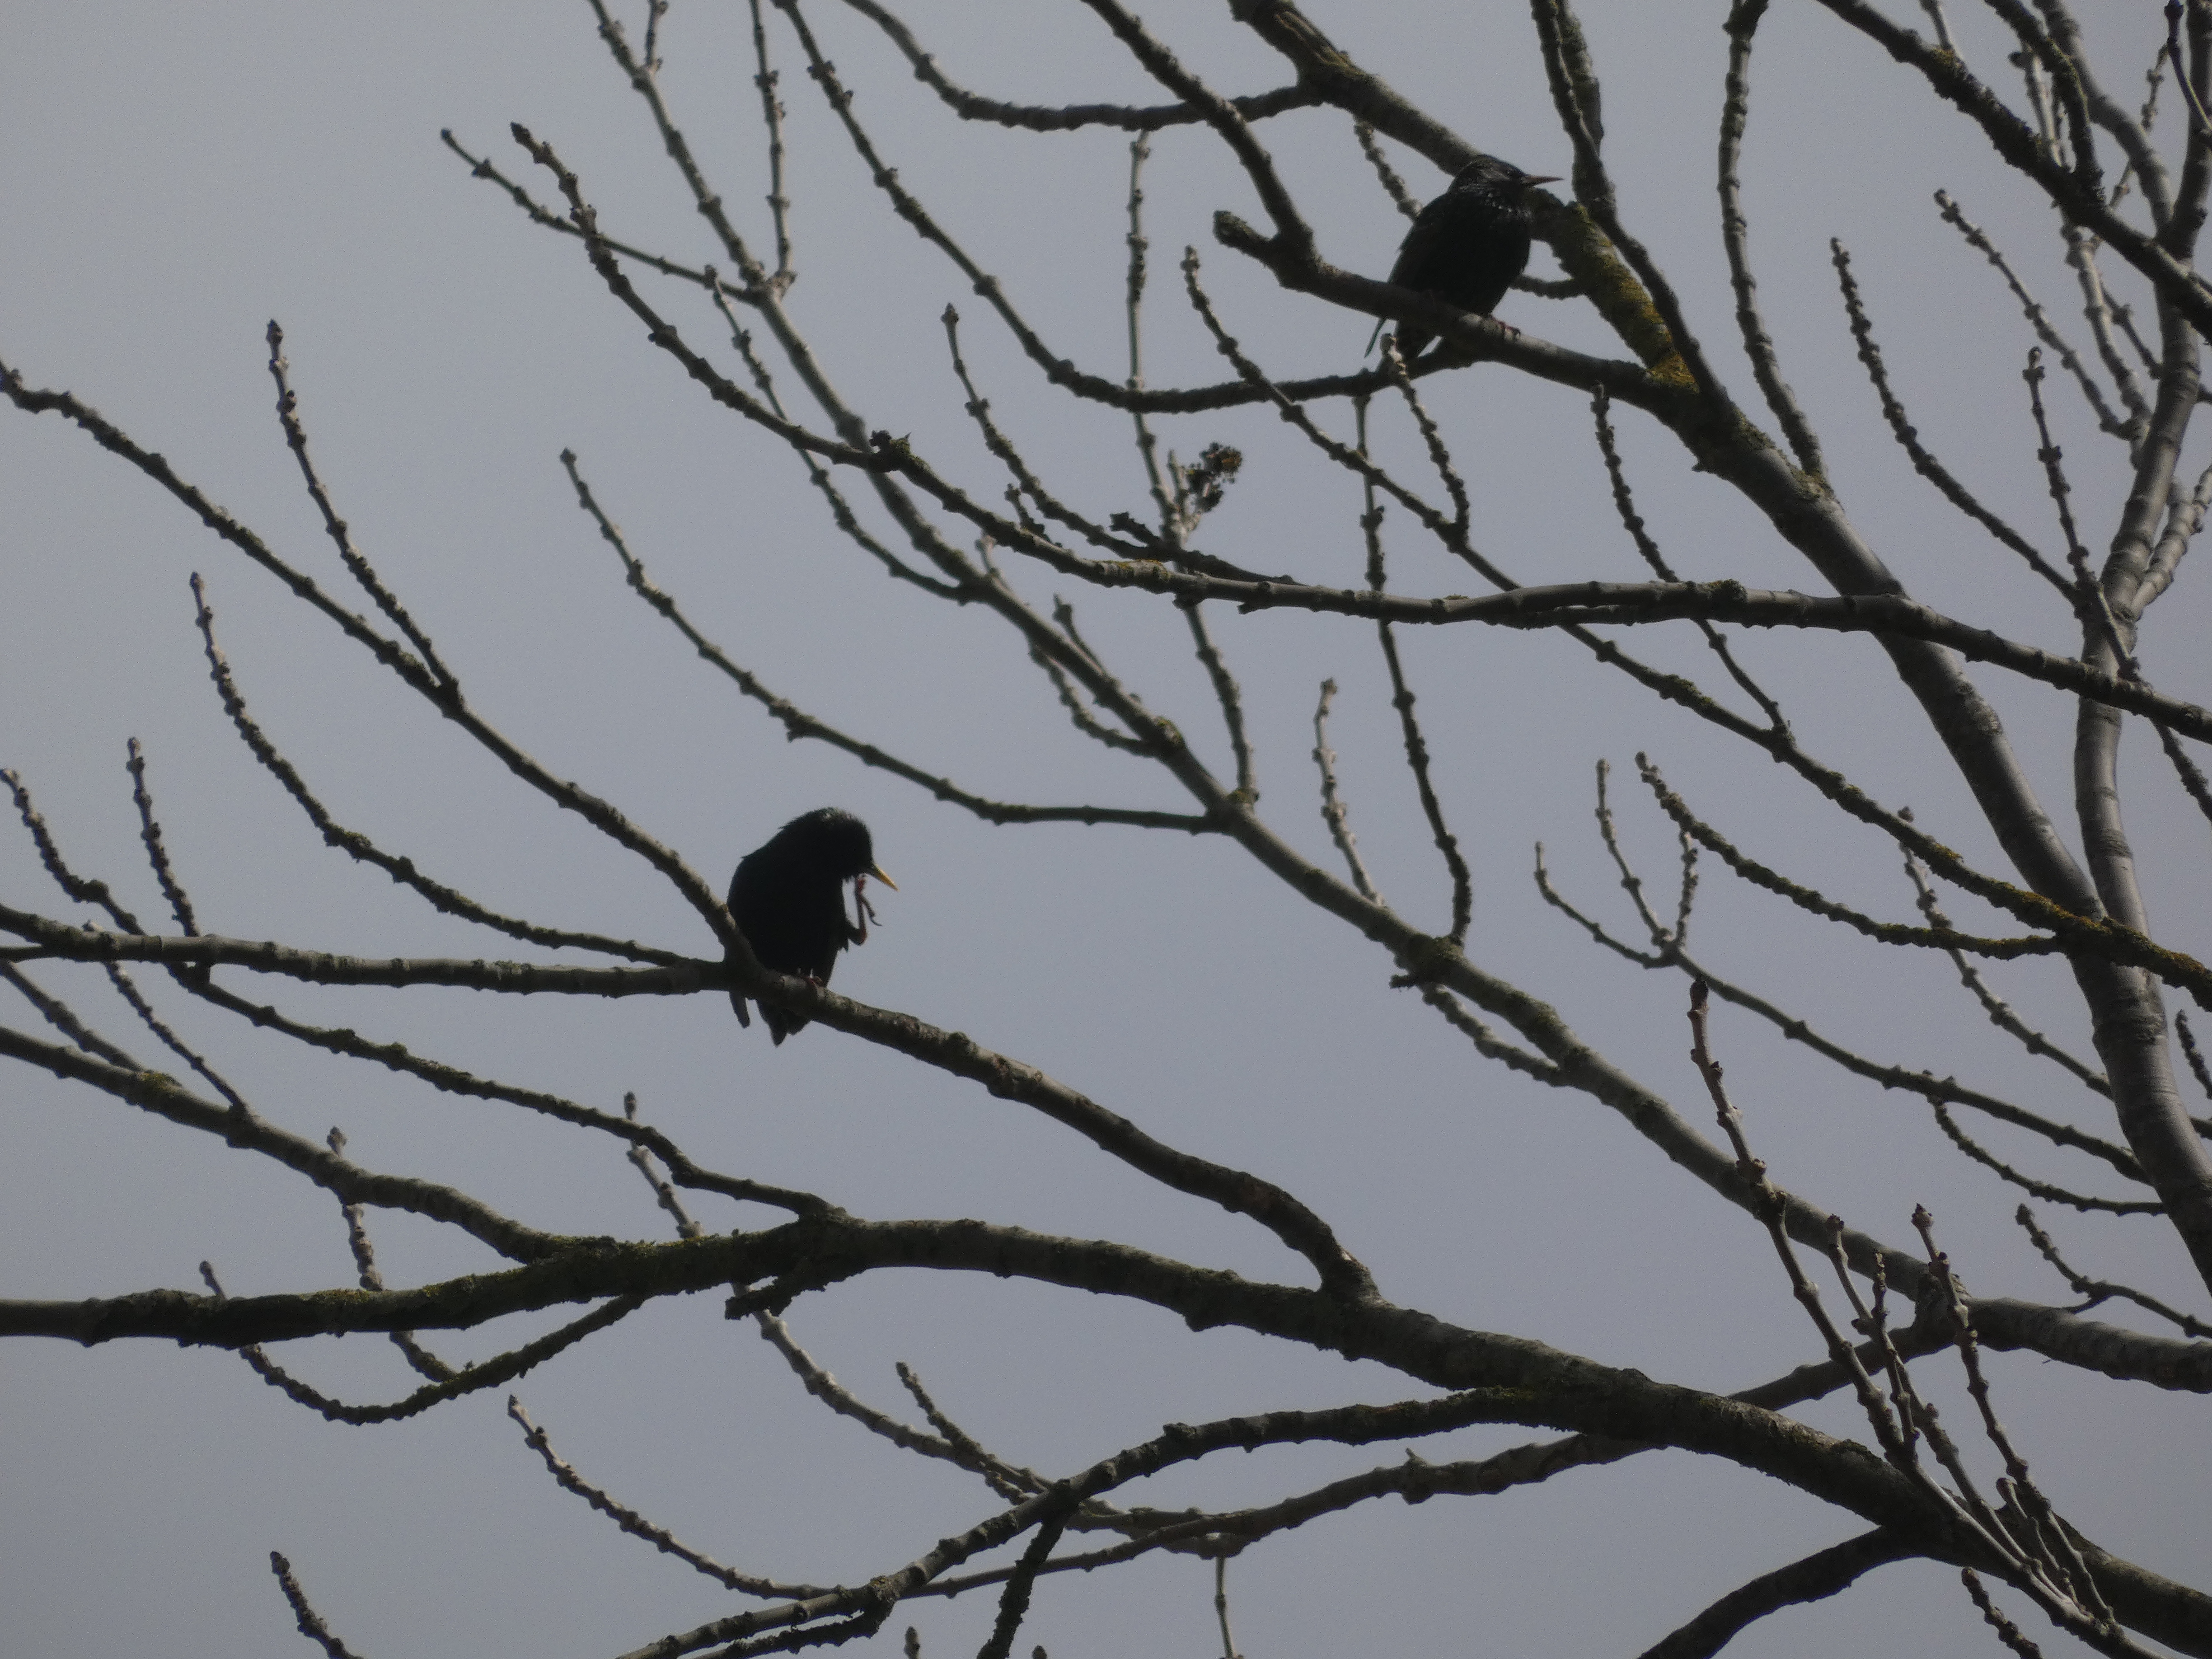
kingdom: Animalia
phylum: Chordata
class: Aves
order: Passeriformes
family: Sturnidae
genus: Sturnus
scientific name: Sturnus vulgaris
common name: Stær
